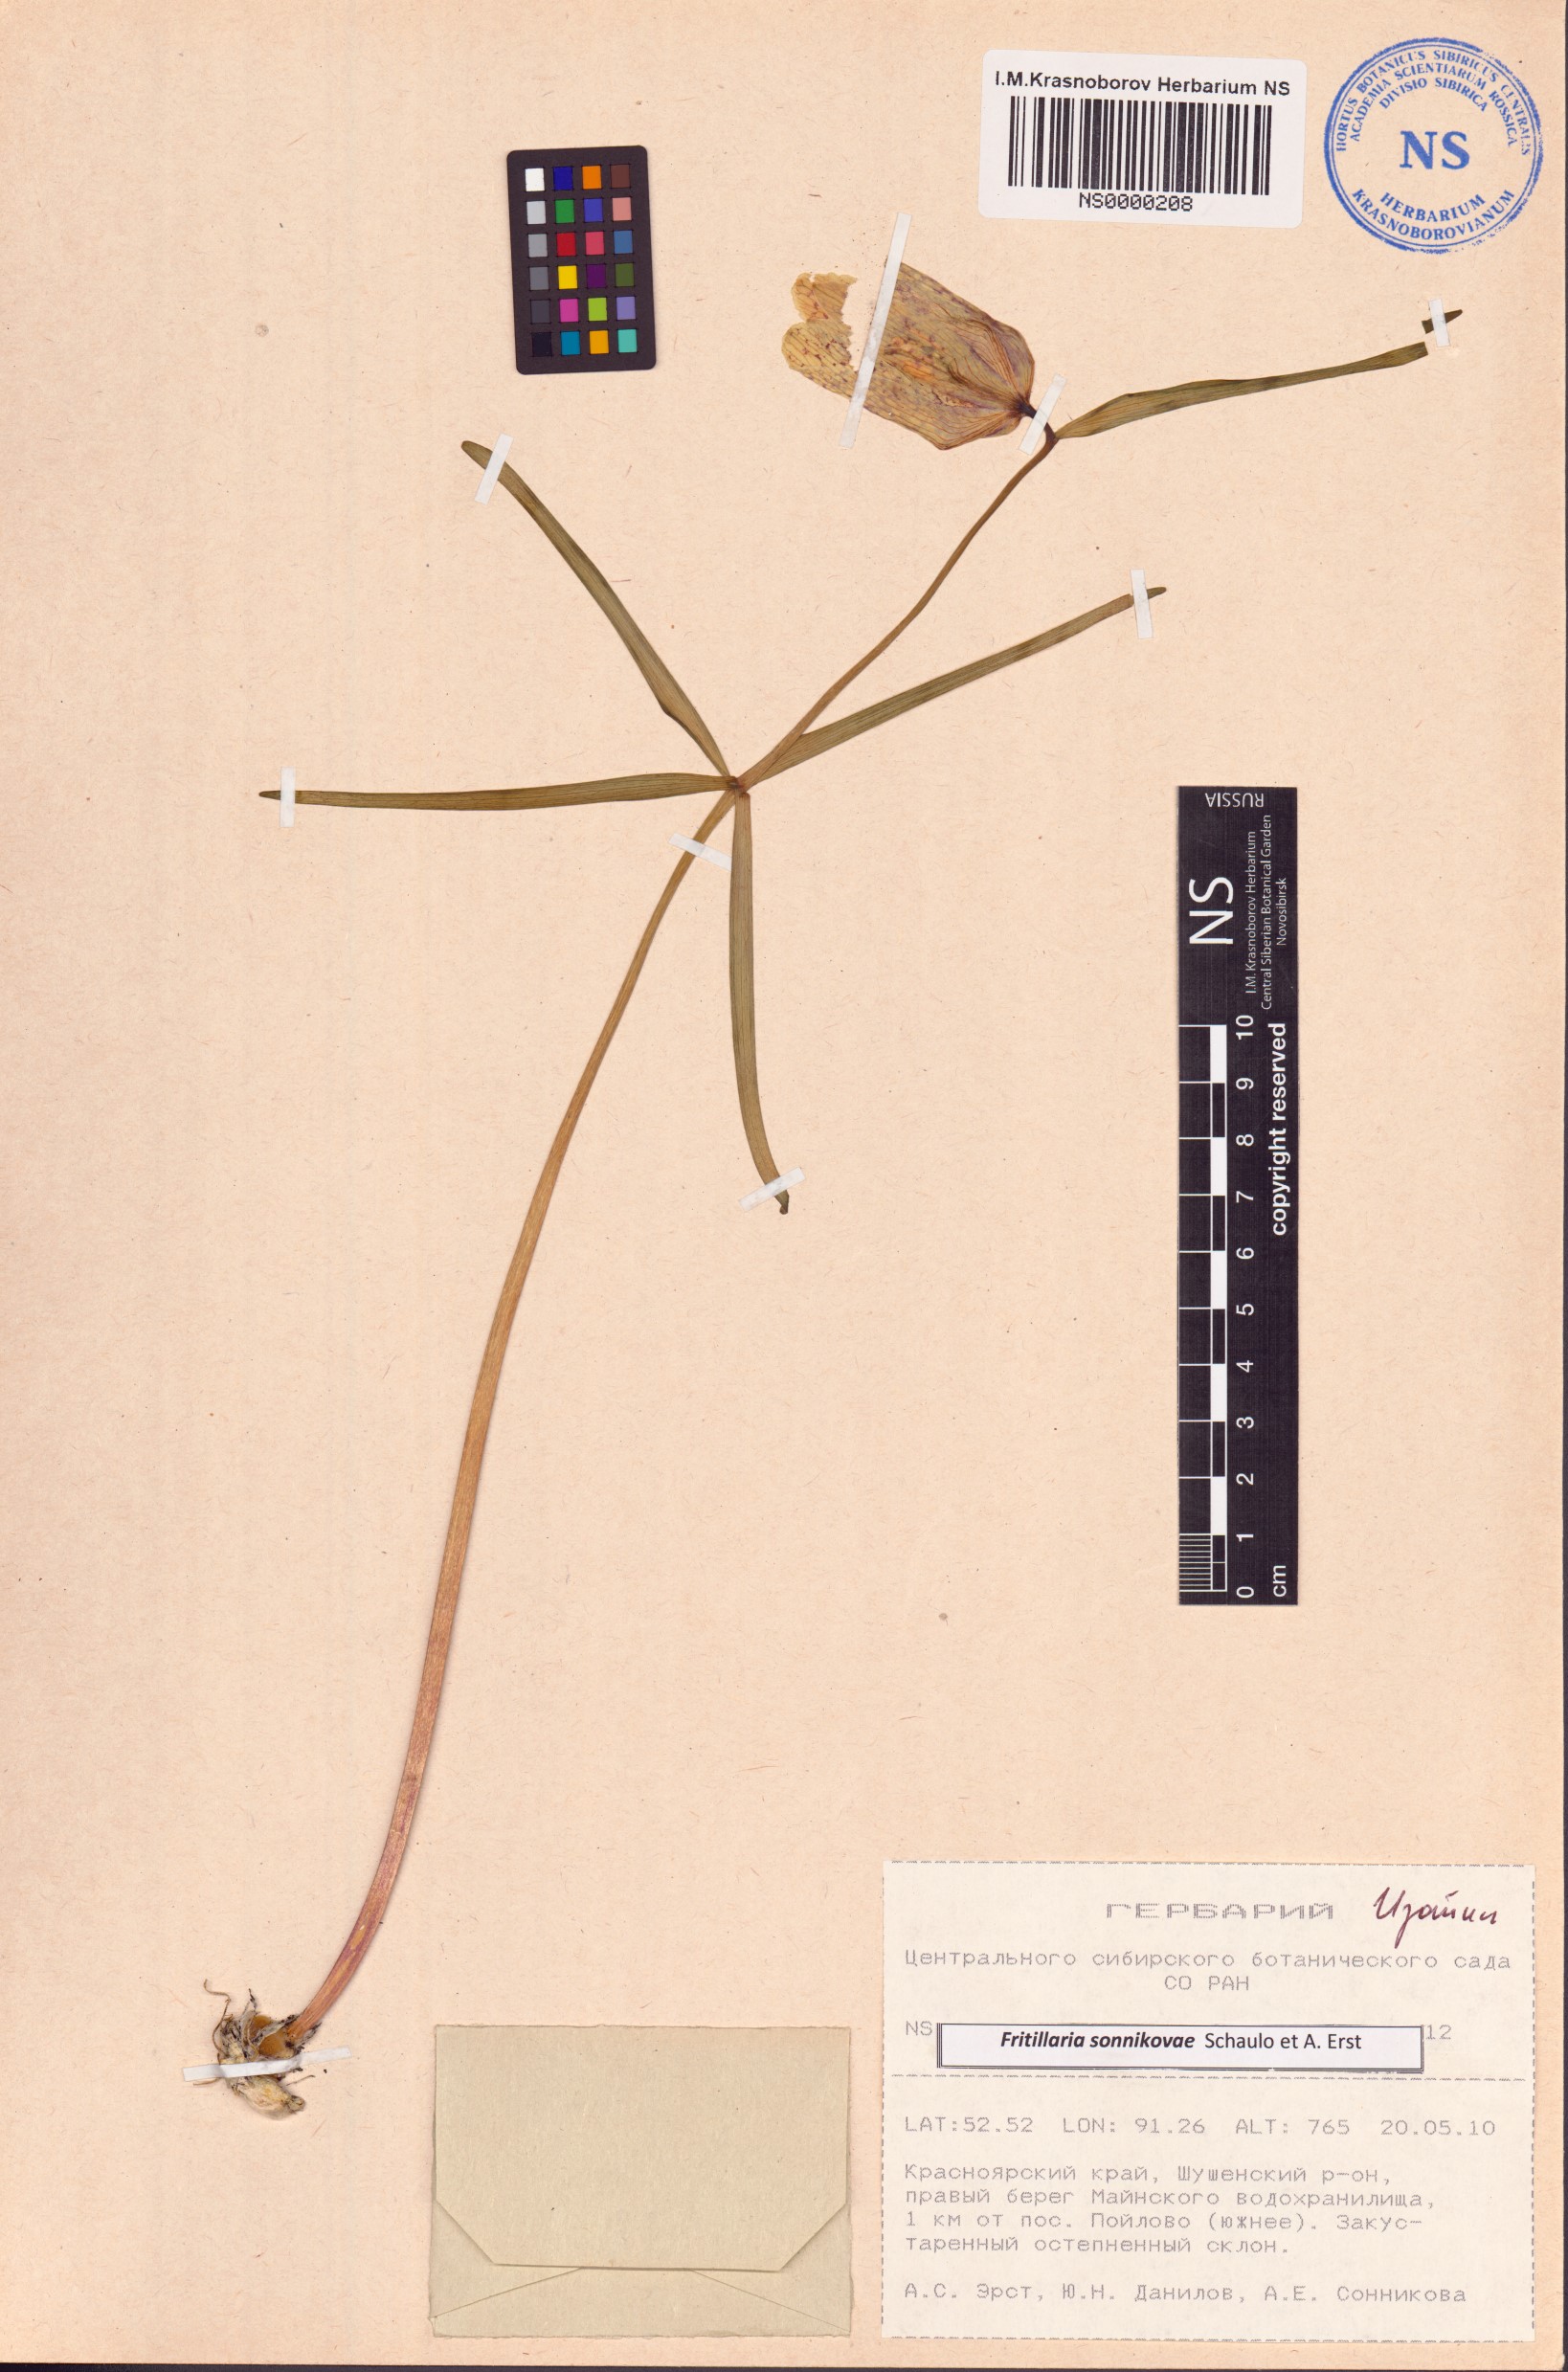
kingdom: Plantae
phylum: Tracheophyta
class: Liliopsida
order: Liliales
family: Liliaceae
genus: Fritillaria
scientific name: Fritillaria sonnikovae
